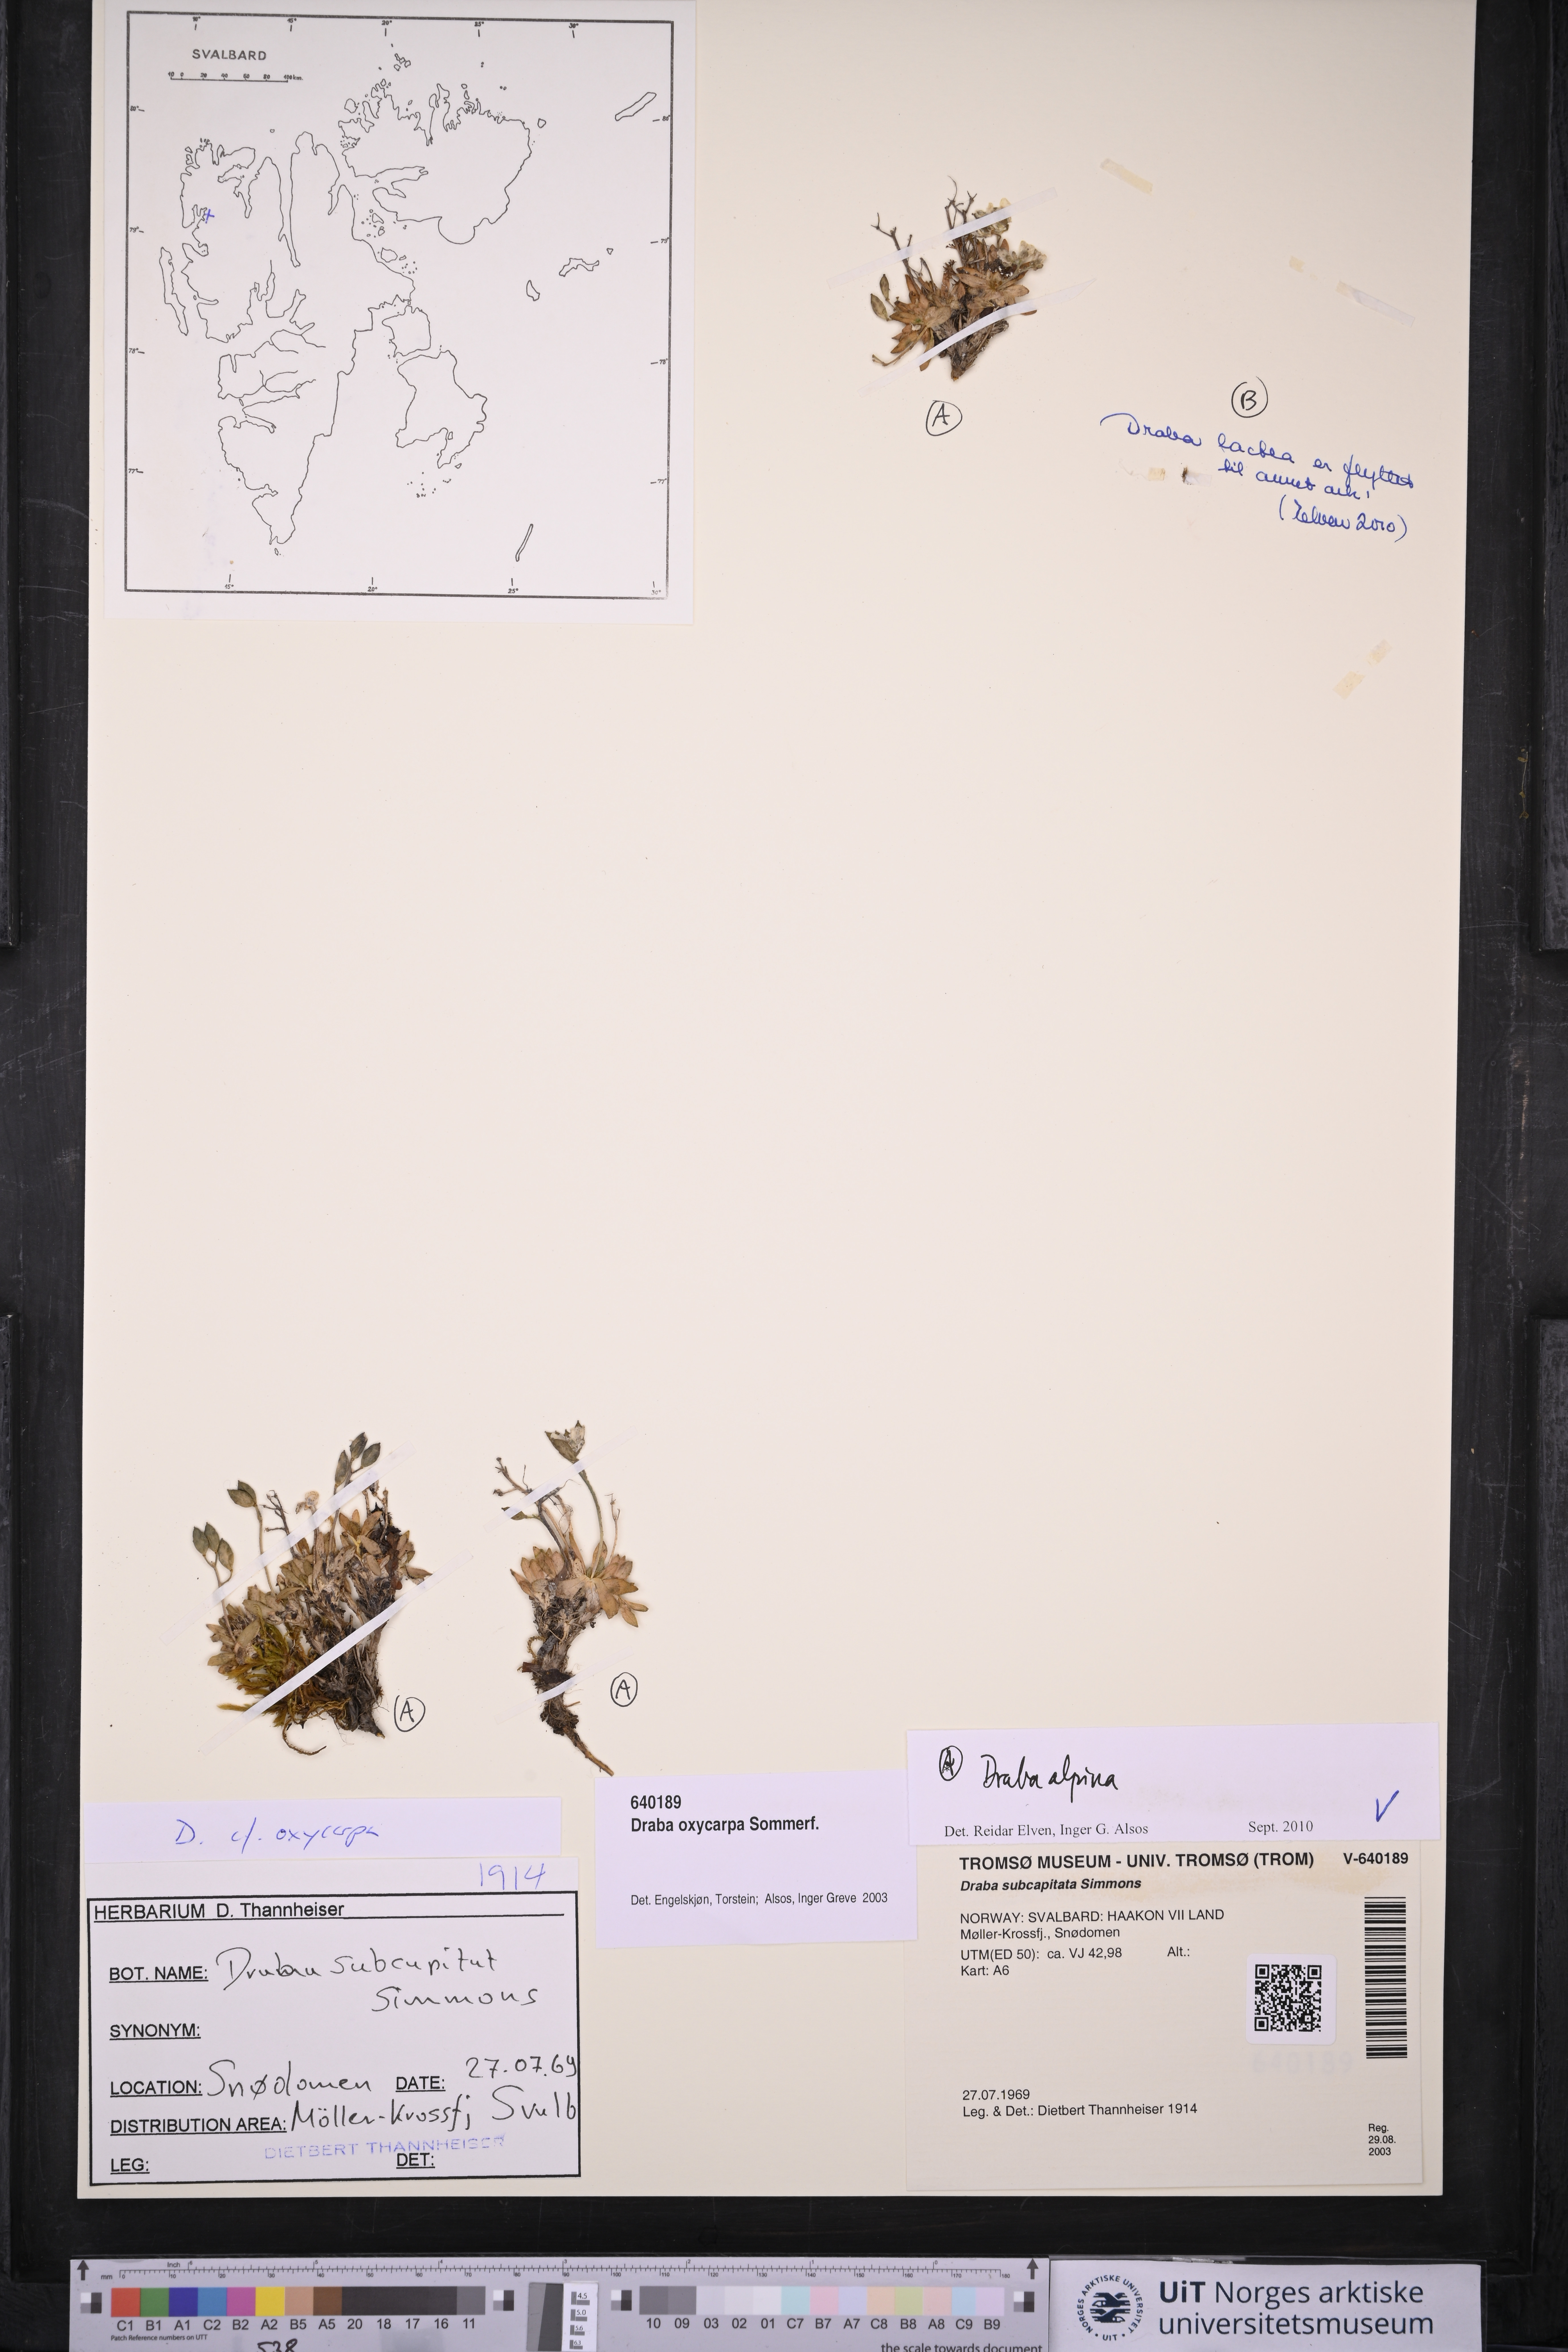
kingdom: Plantae
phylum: Tracheophyta
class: Magnoliopsida
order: Brassicales
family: Brassicaceae
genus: Draba
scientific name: Draba alpina
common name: Alpine draba
